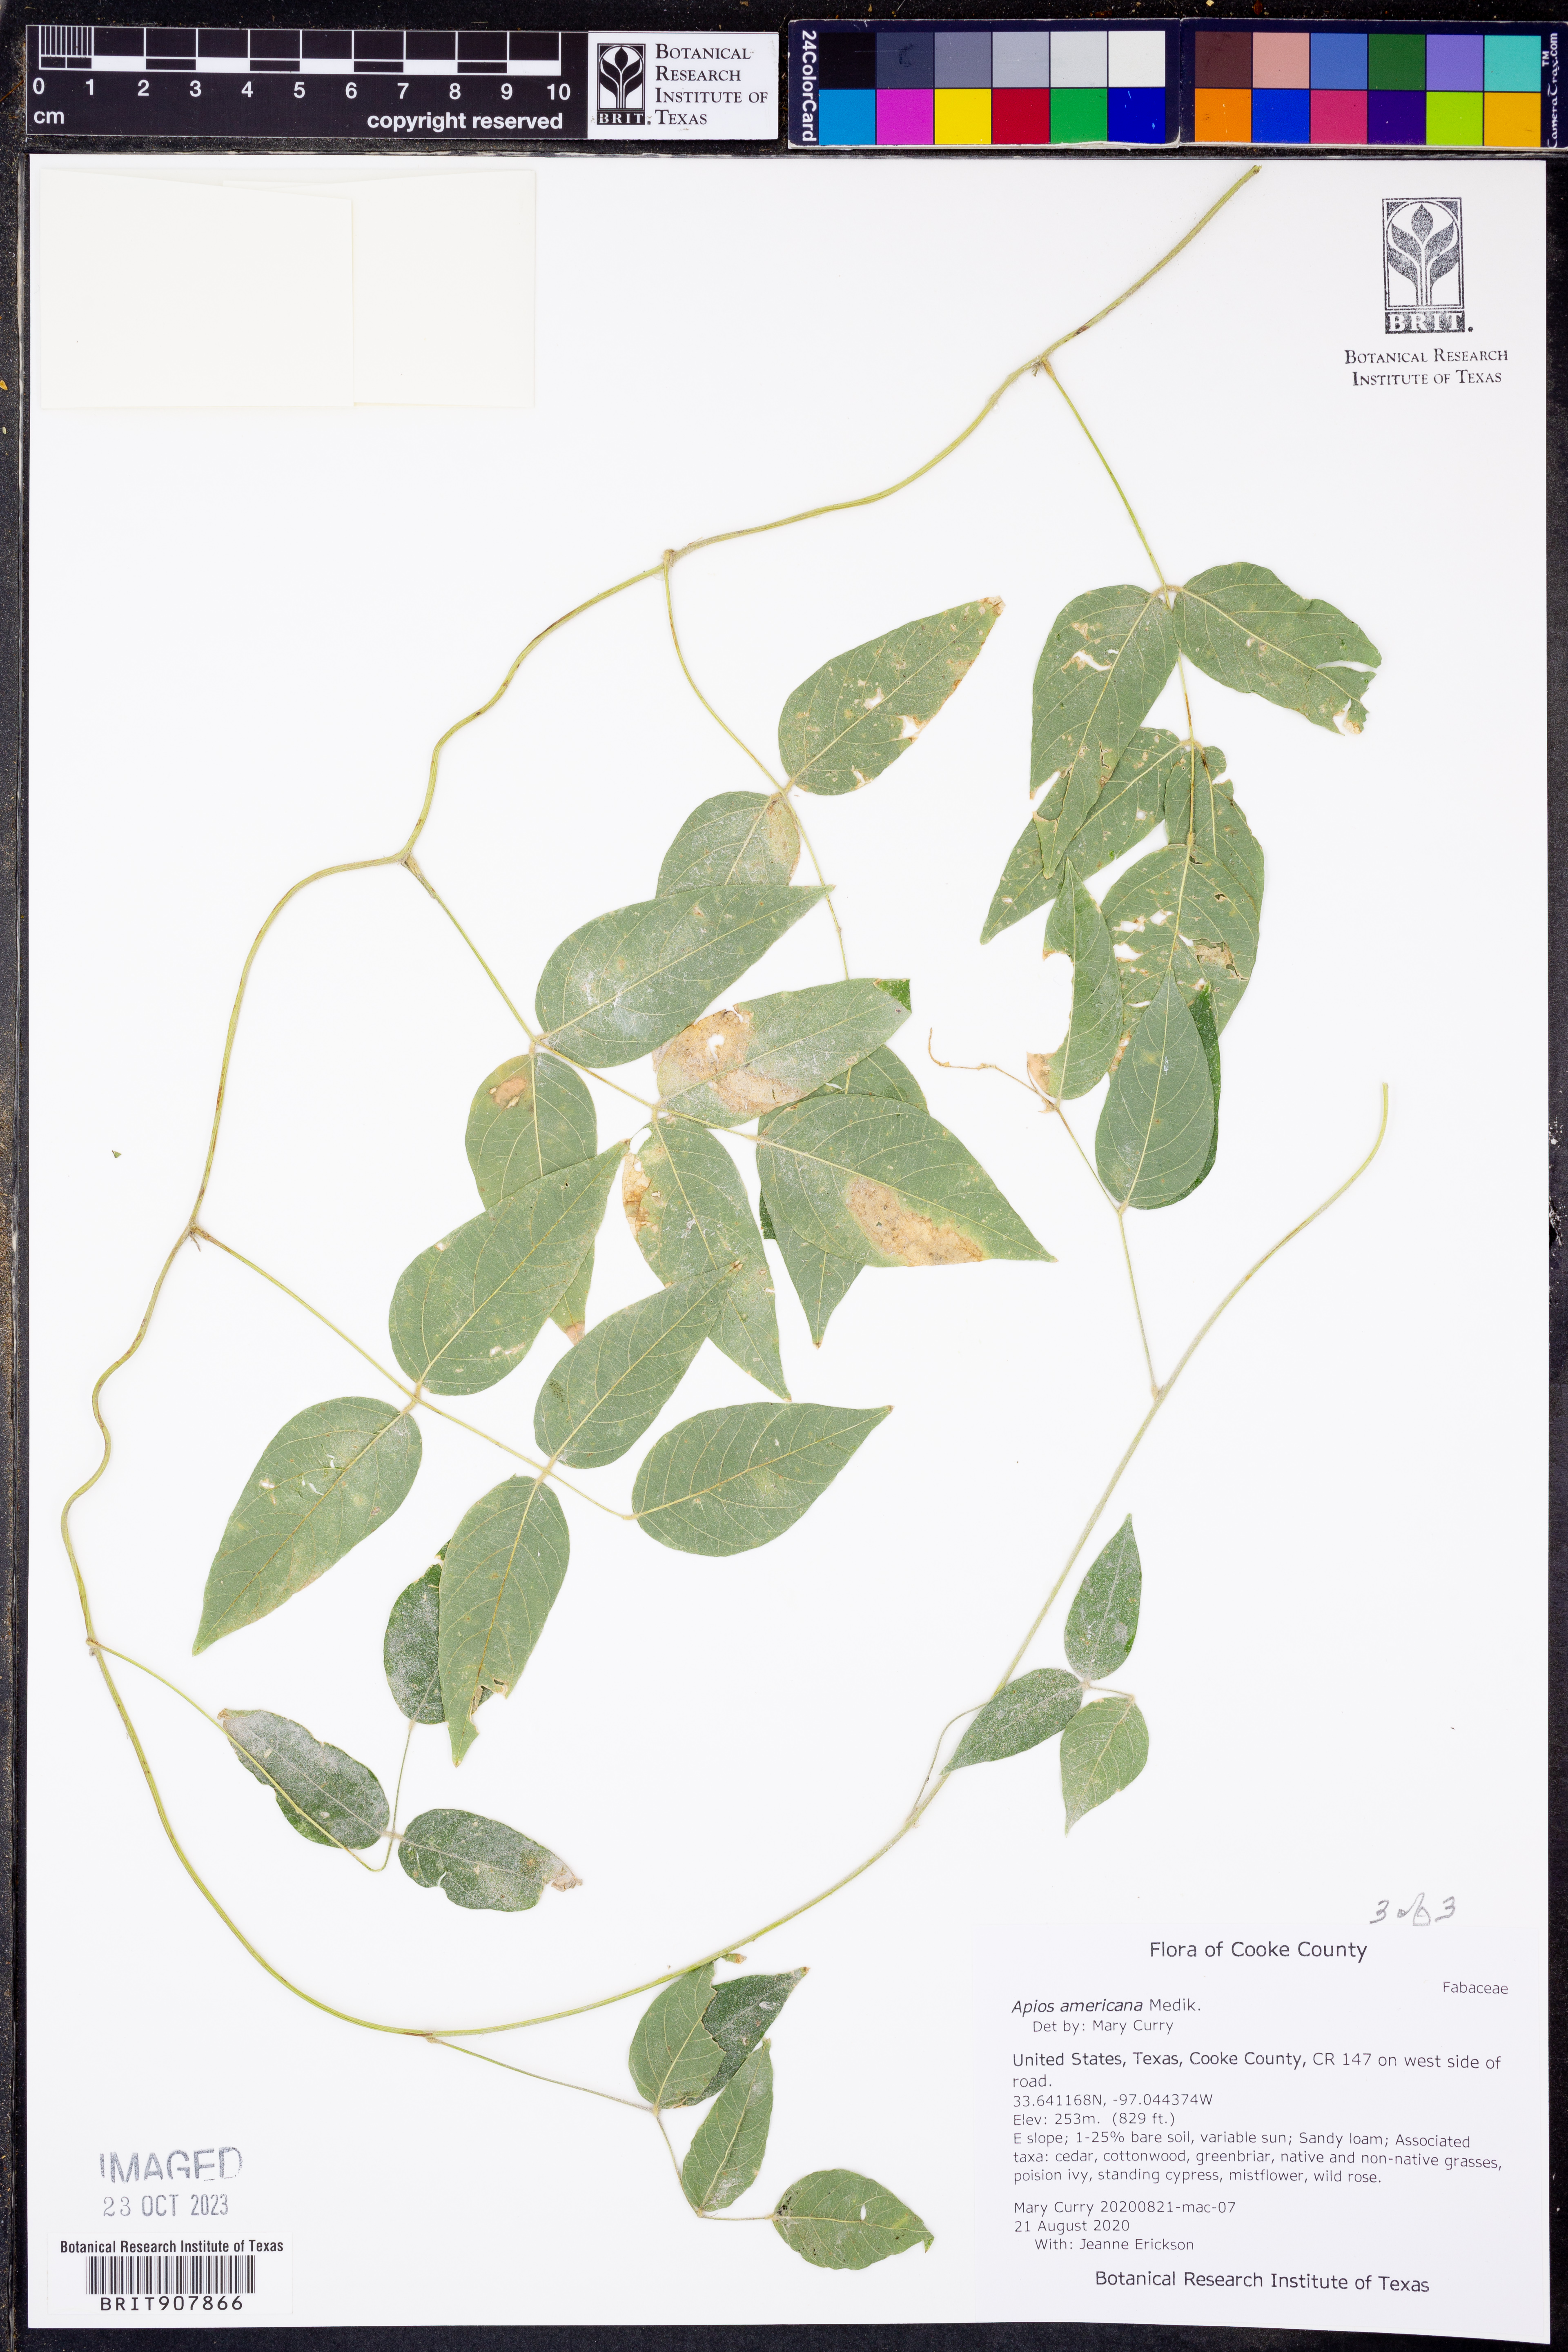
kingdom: Plantae
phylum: Tracheophyta
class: Magnoliopsida
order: Fabales
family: Fabaceae
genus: Apios
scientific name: Apios americana
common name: American potato-bean
